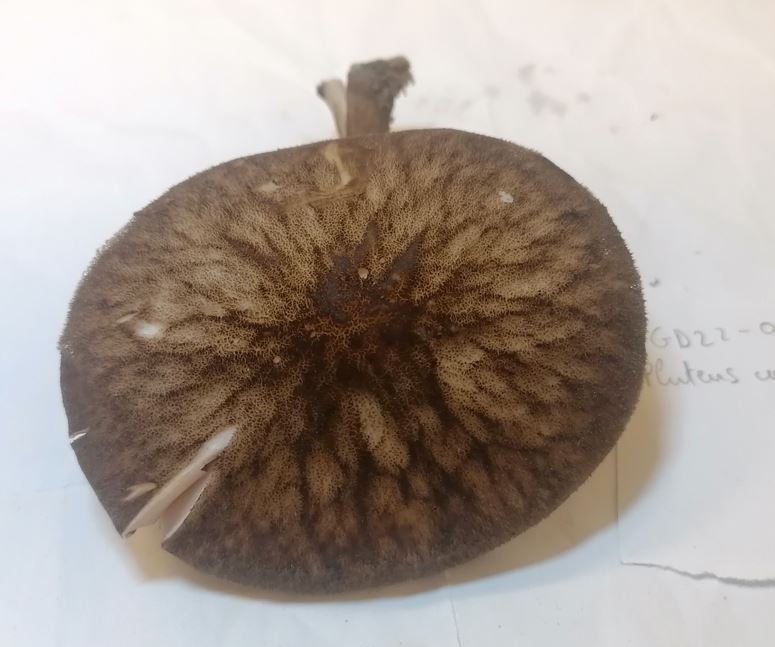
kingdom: Fungi
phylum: Basidiomycota
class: Agaricomycetes
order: Agaricales
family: Pluteaceae
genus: Pluteus
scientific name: Pluteus umbrosus
